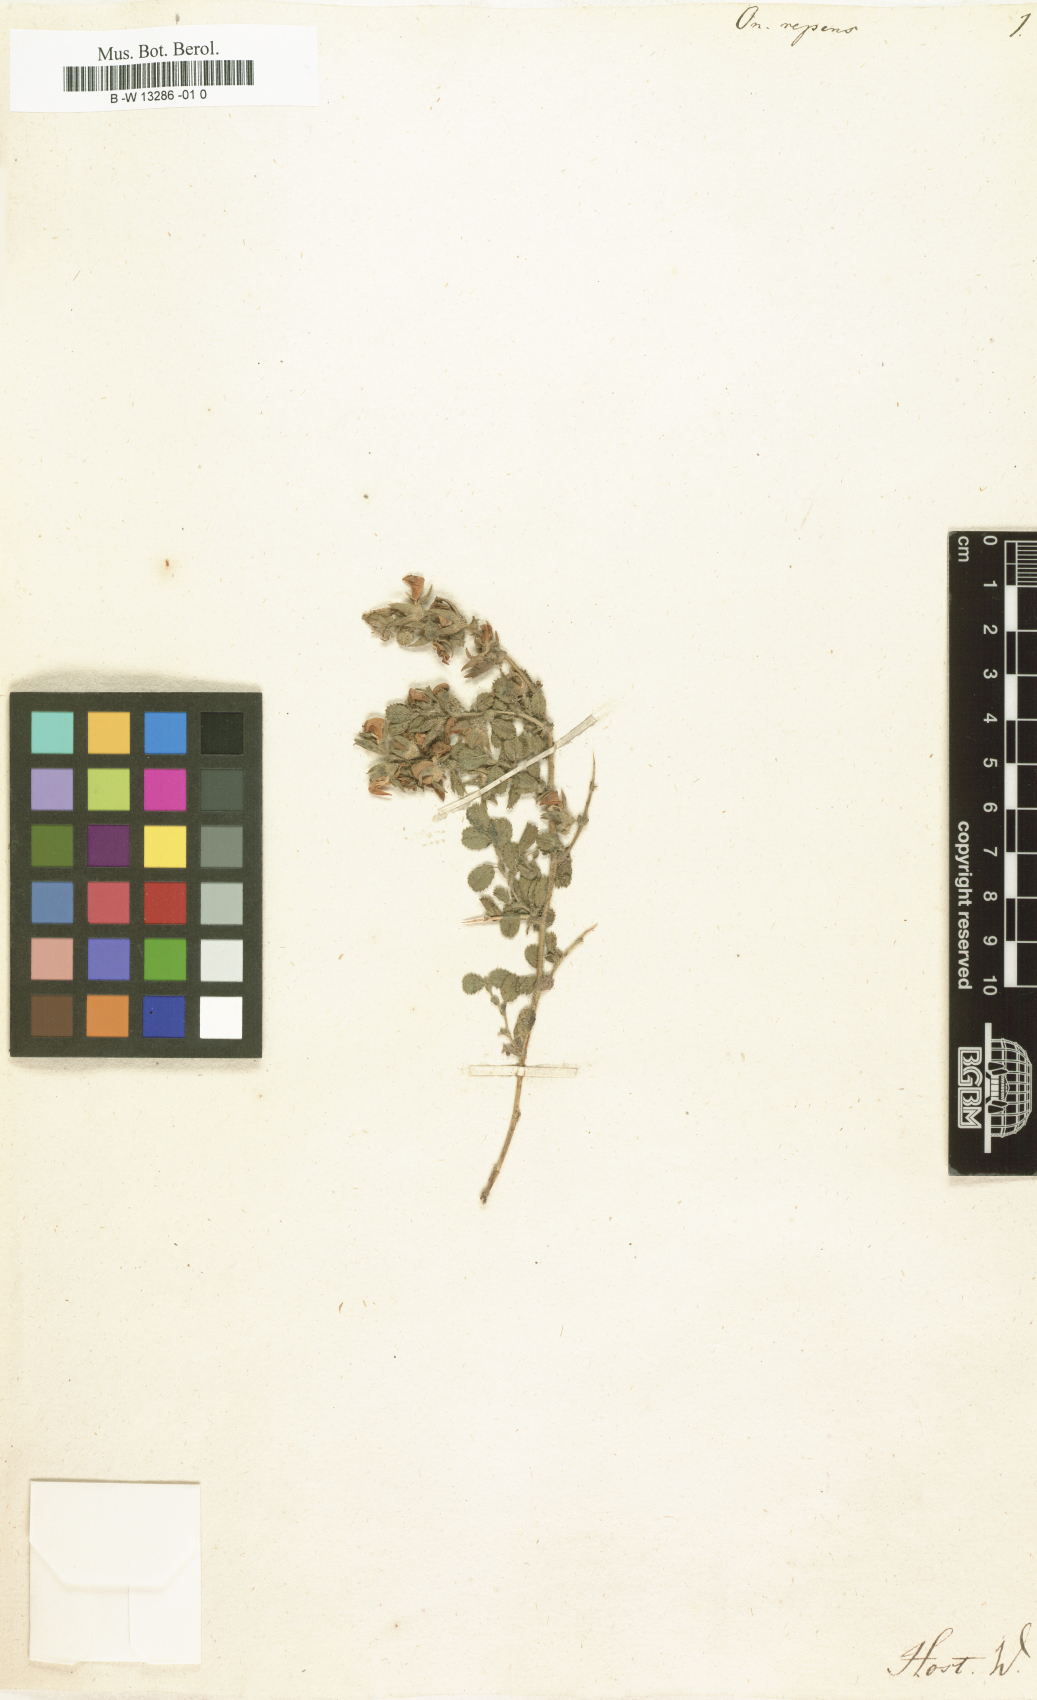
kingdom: Plantae
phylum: Tracheophyta
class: Magnoliopsida
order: Fabales
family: Fabaceae
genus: Ononis
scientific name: Ononis spinosa
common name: Spiny restharrow
